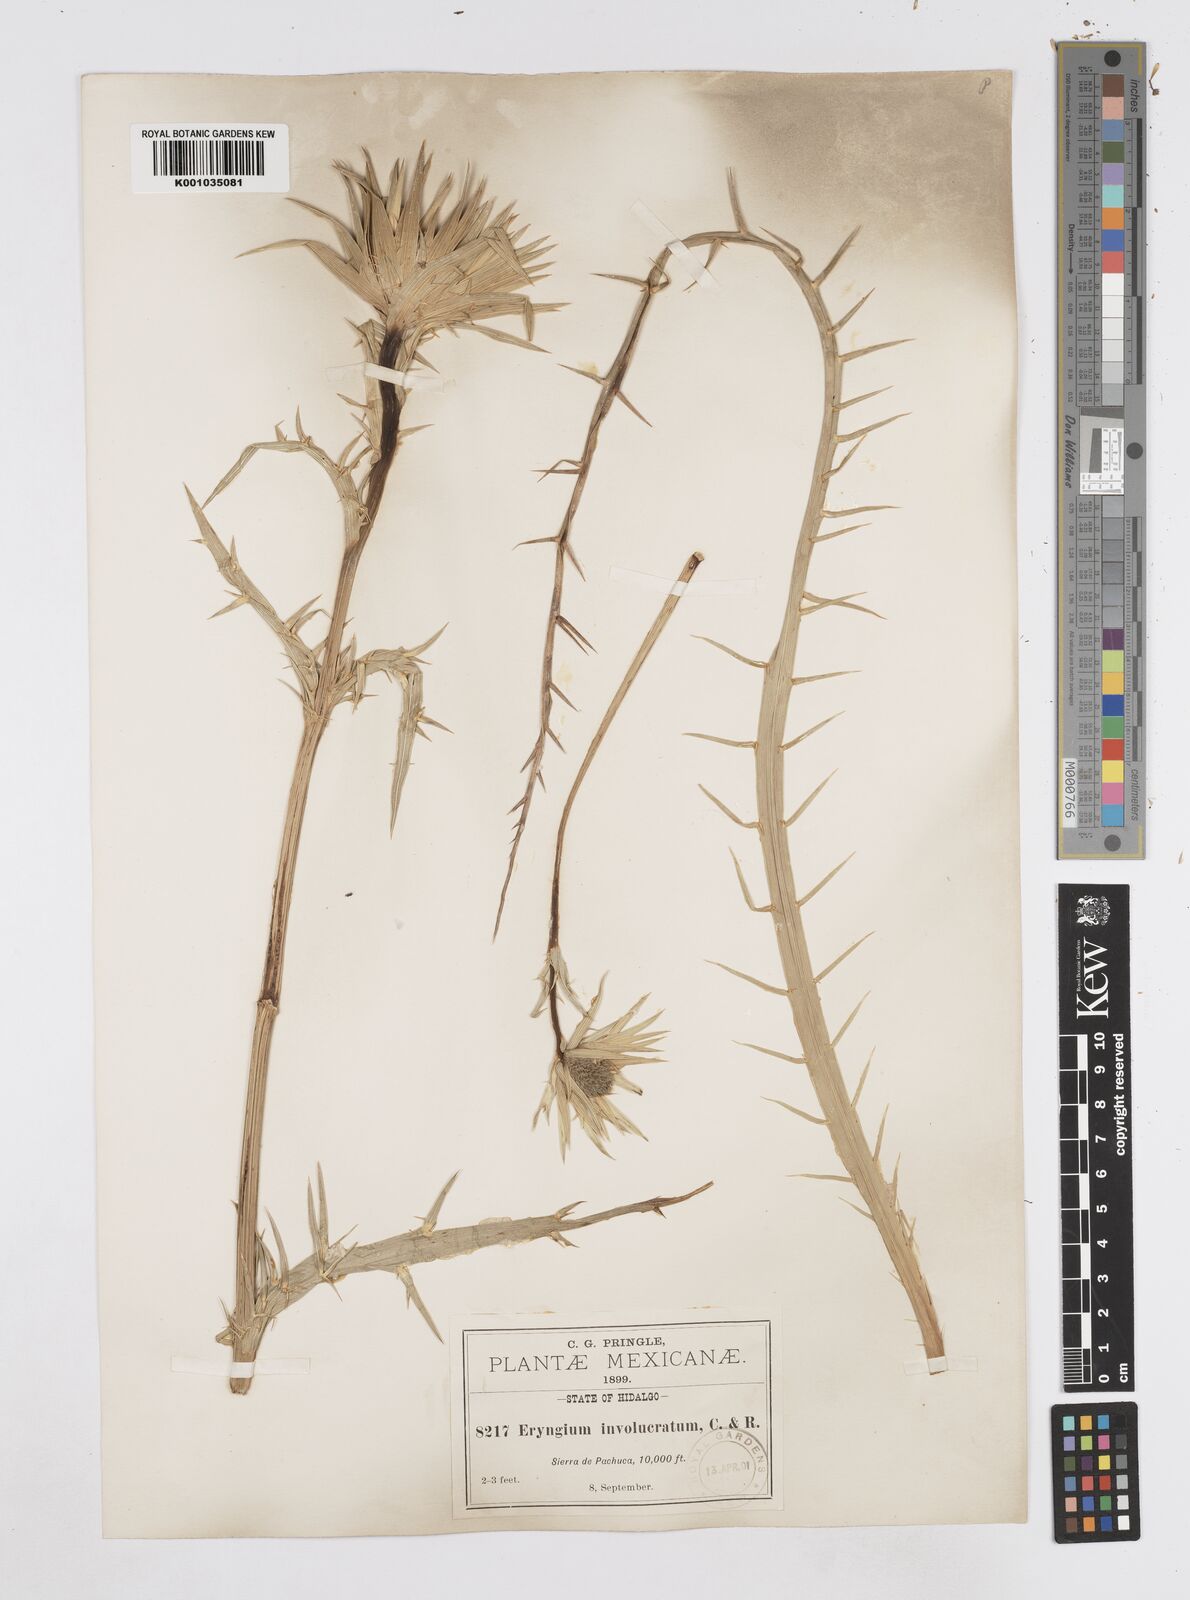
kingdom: Plantae
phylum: Tracheophyta
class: Magnoliopsida
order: Apiales
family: Apiaceae
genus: Eryngium
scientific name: Eryngium monocephalum
